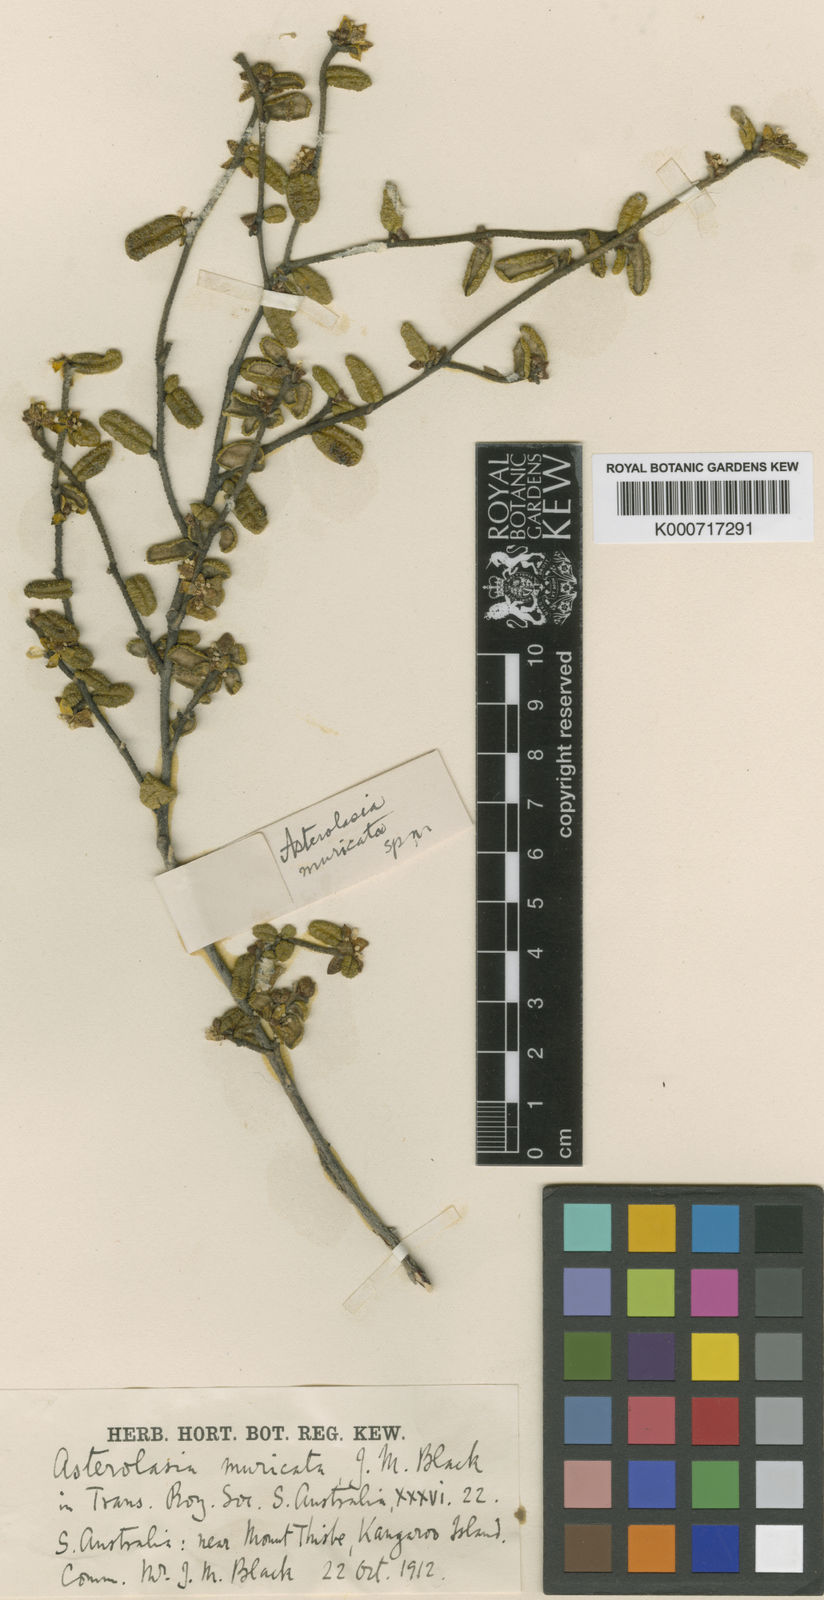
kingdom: Plantae
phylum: Tracheophyta
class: Magnoliopsida
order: Sapindales
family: Rutaceae
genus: Asterolasia
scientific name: Asterolasia muricata
